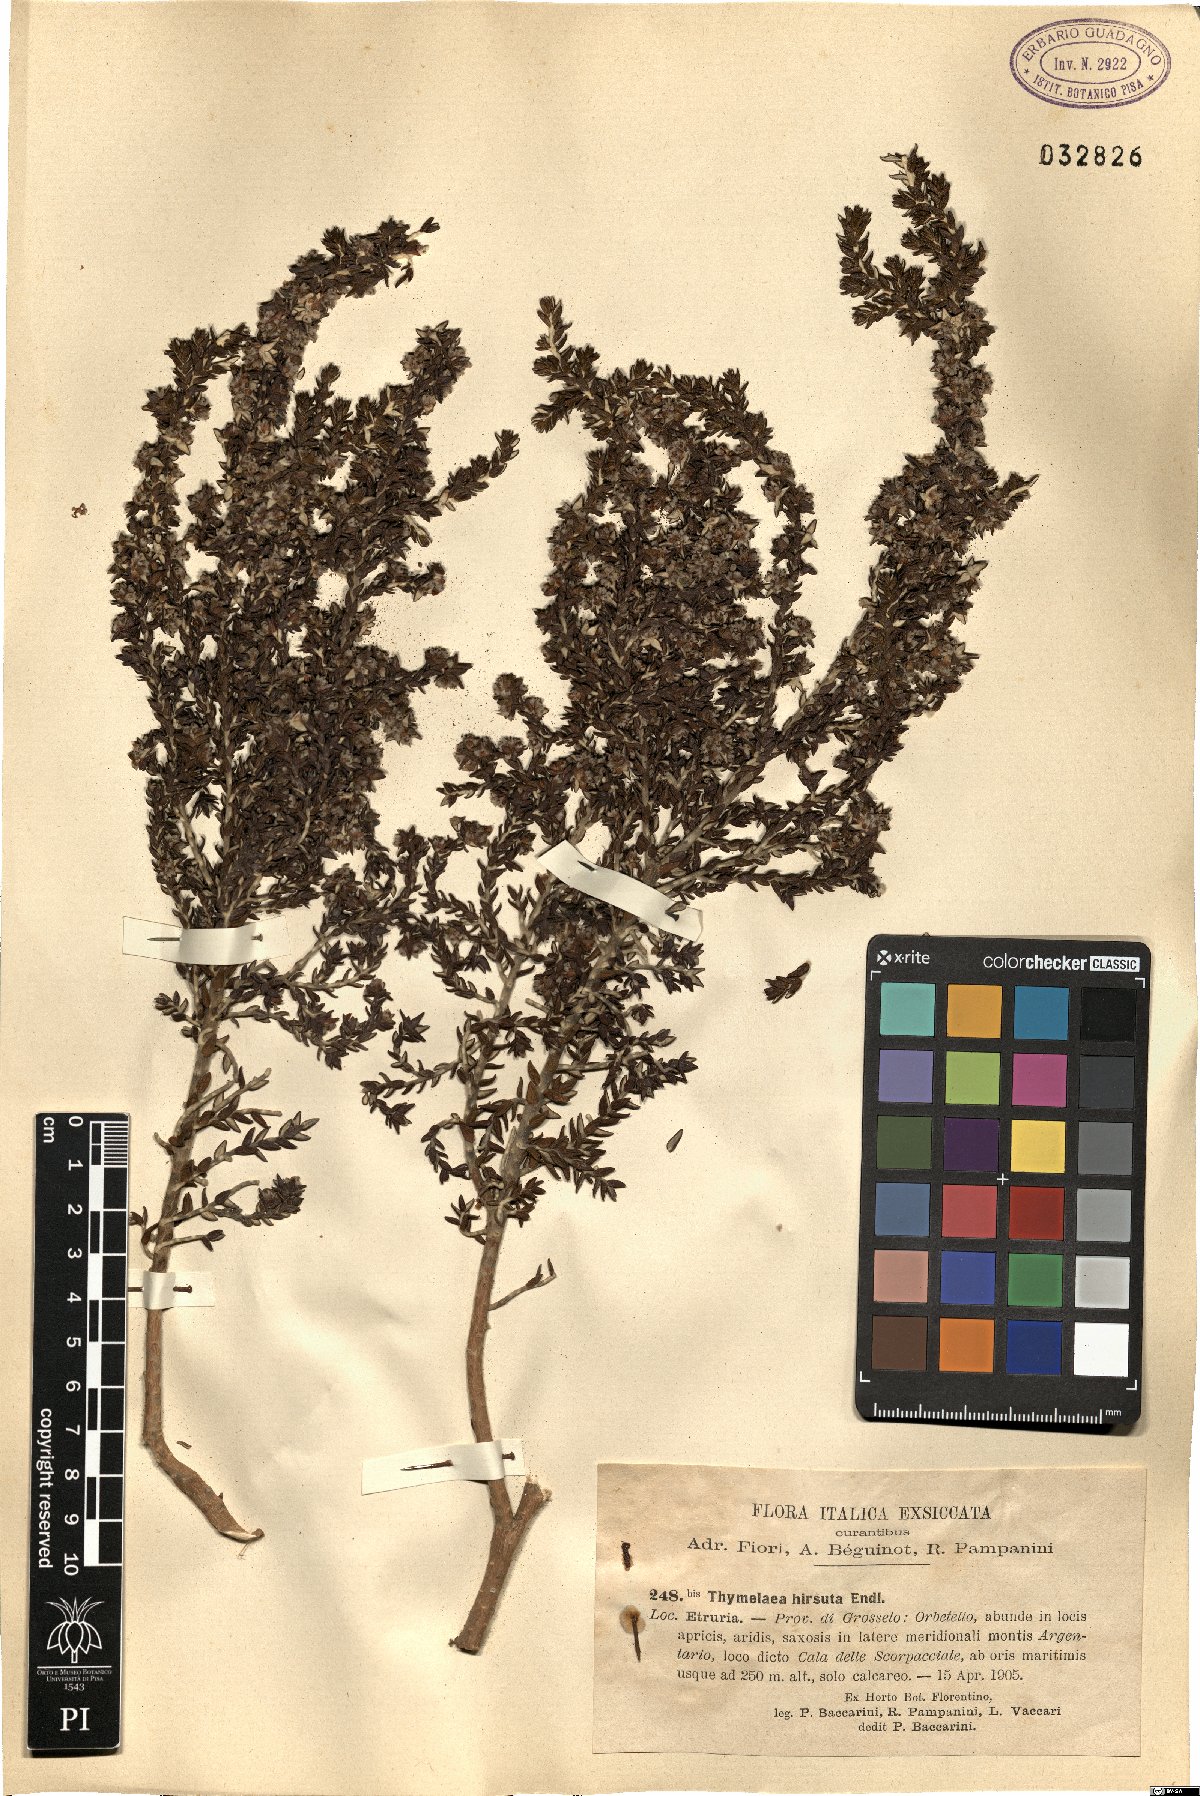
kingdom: Plantae
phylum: Tracheophyta
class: Magnoliopsida
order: Malvales
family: Thymelaeaceae
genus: Thymelaea
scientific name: Thymelaea hirsuta
